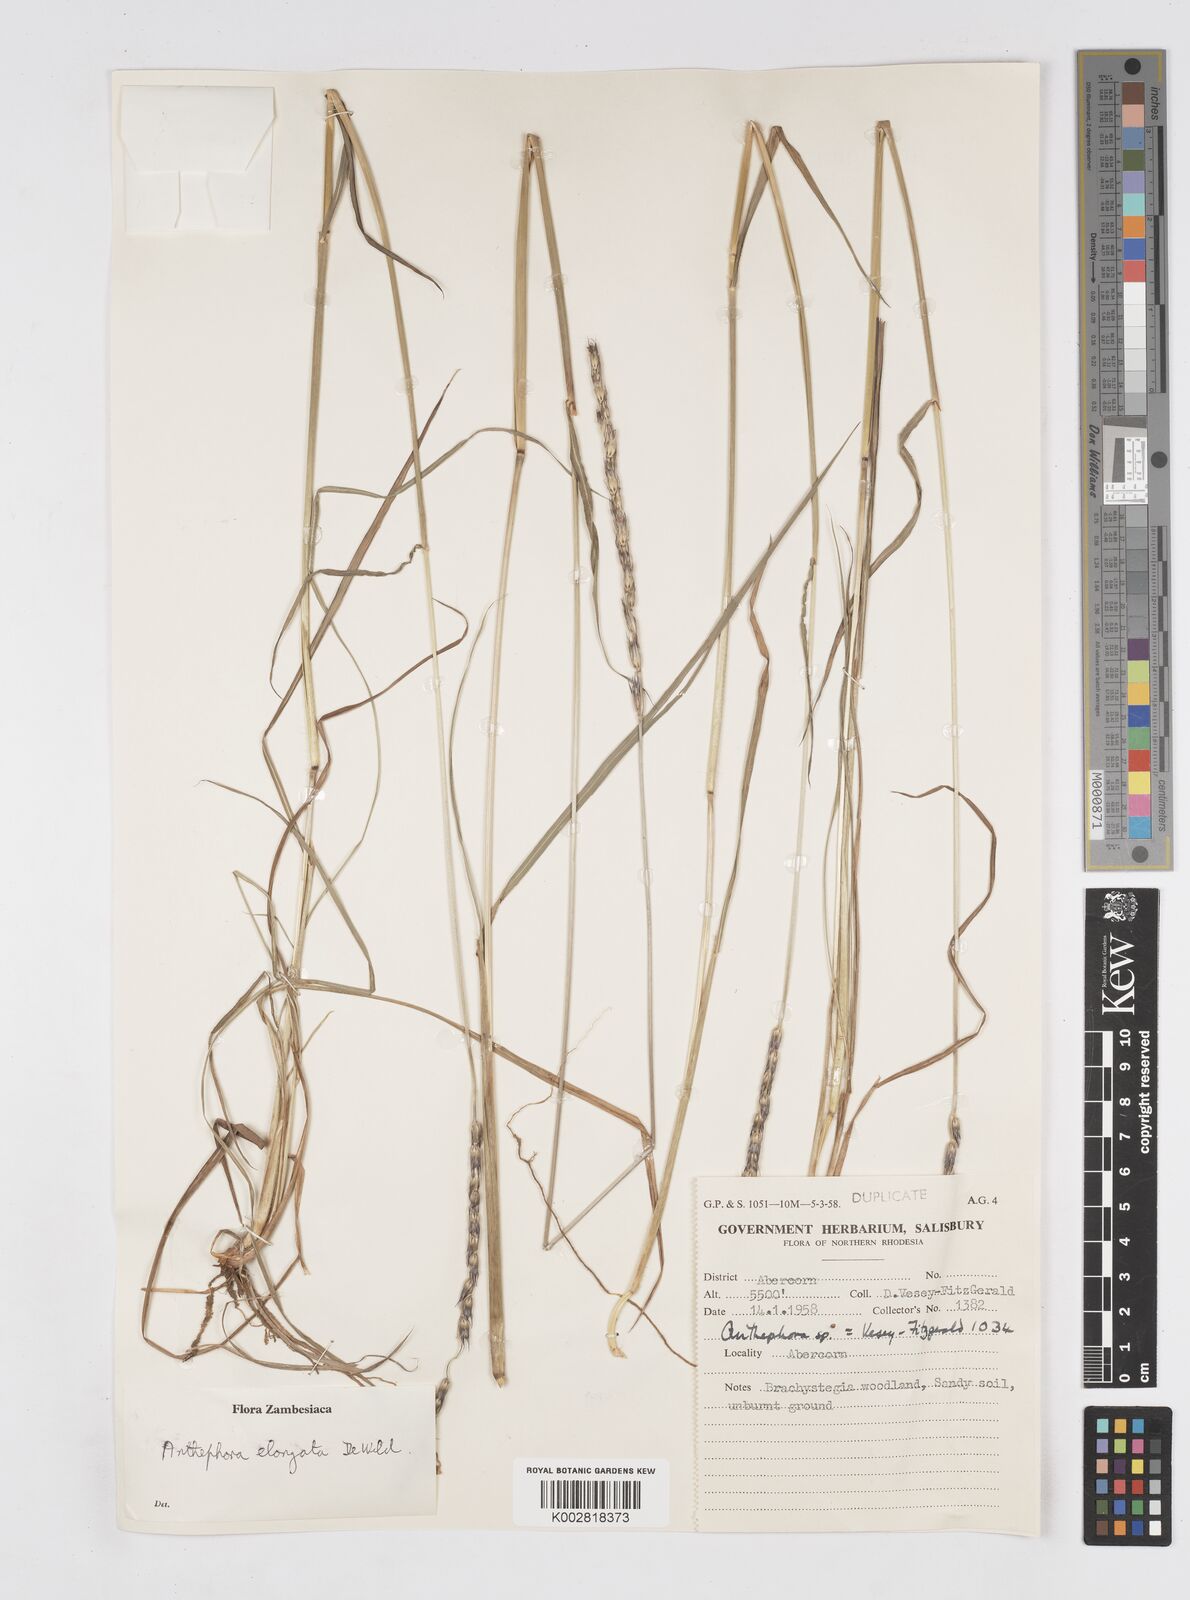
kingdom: Plantae
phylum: Tracheophyta
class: Liliopsida
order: Poales
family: Poaceae
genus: Anthephora
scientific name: Anthephora elongata
